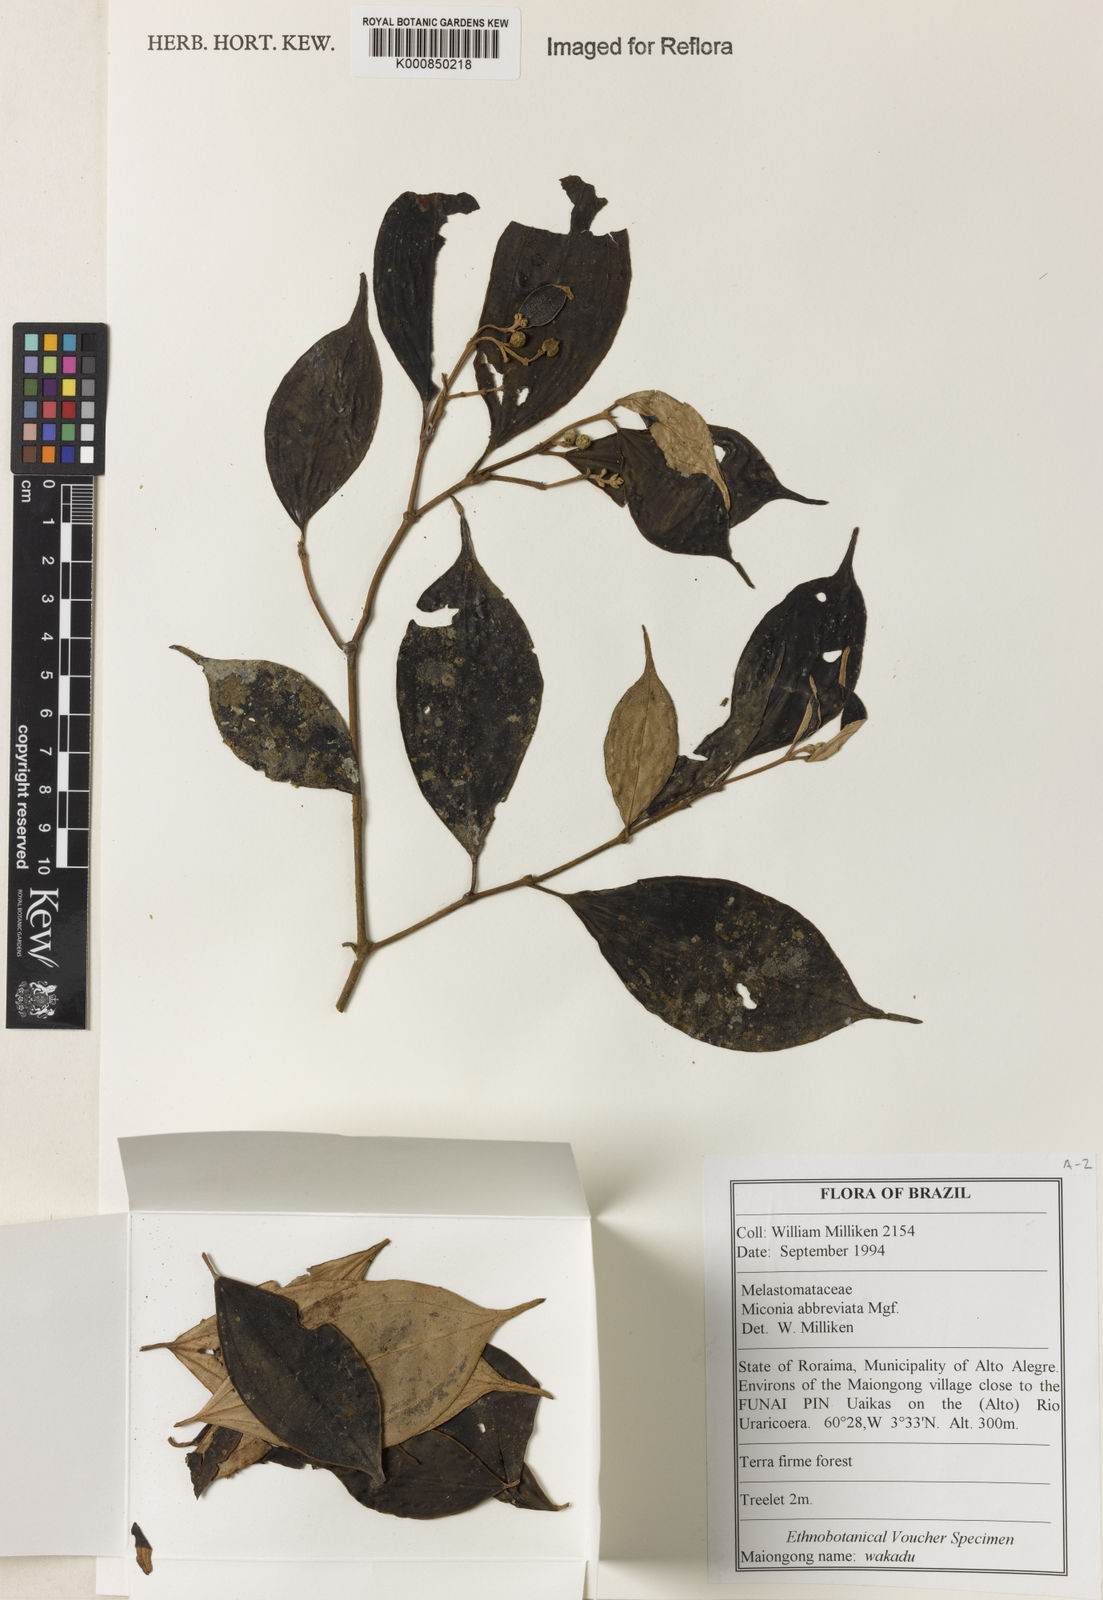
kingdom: Plantae
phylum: Tracheophyta
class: Magnoliopsida
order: Myrtales
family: Melastomataceae
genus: Miconia
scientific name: Miconia abbreviata
